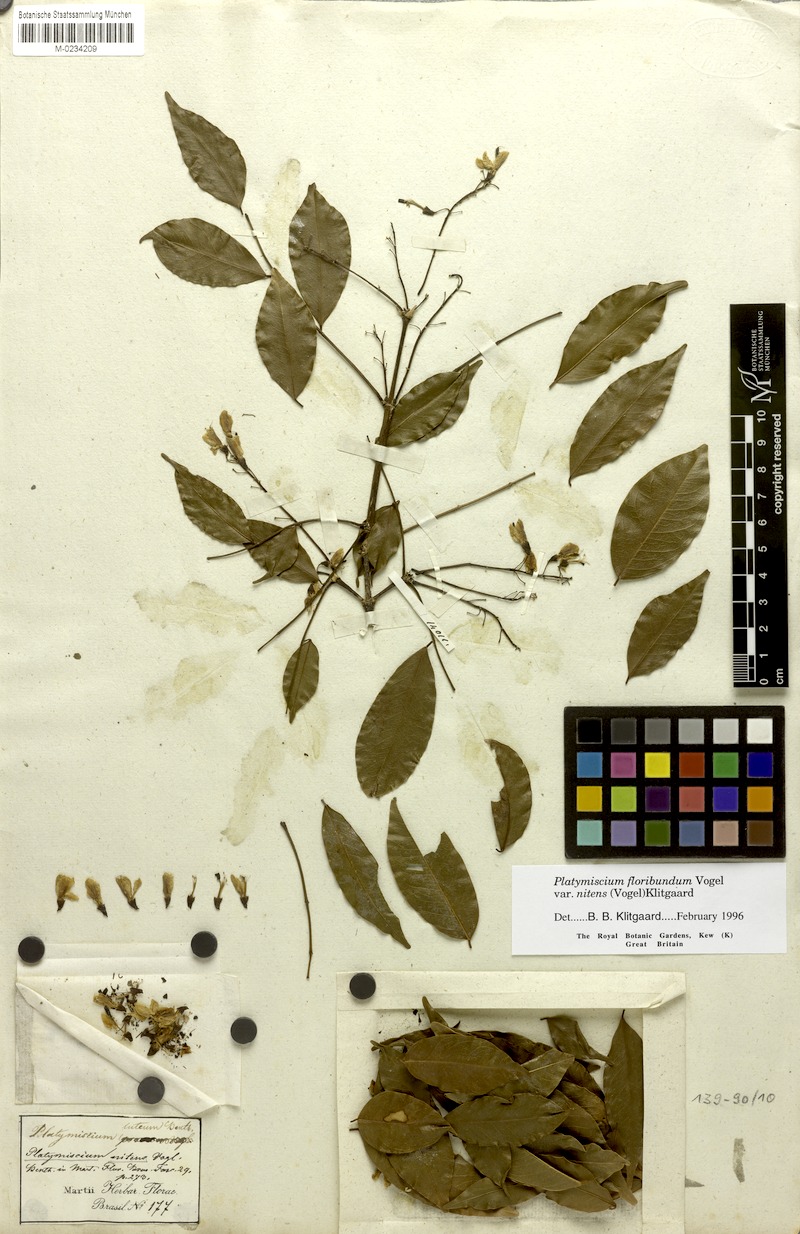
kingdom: Plantae
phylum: Tracheophyta
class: Magnoliopsida
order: Fabales
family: Fabaceae
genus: Platymiscium
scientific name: Platymiscium floribundum
